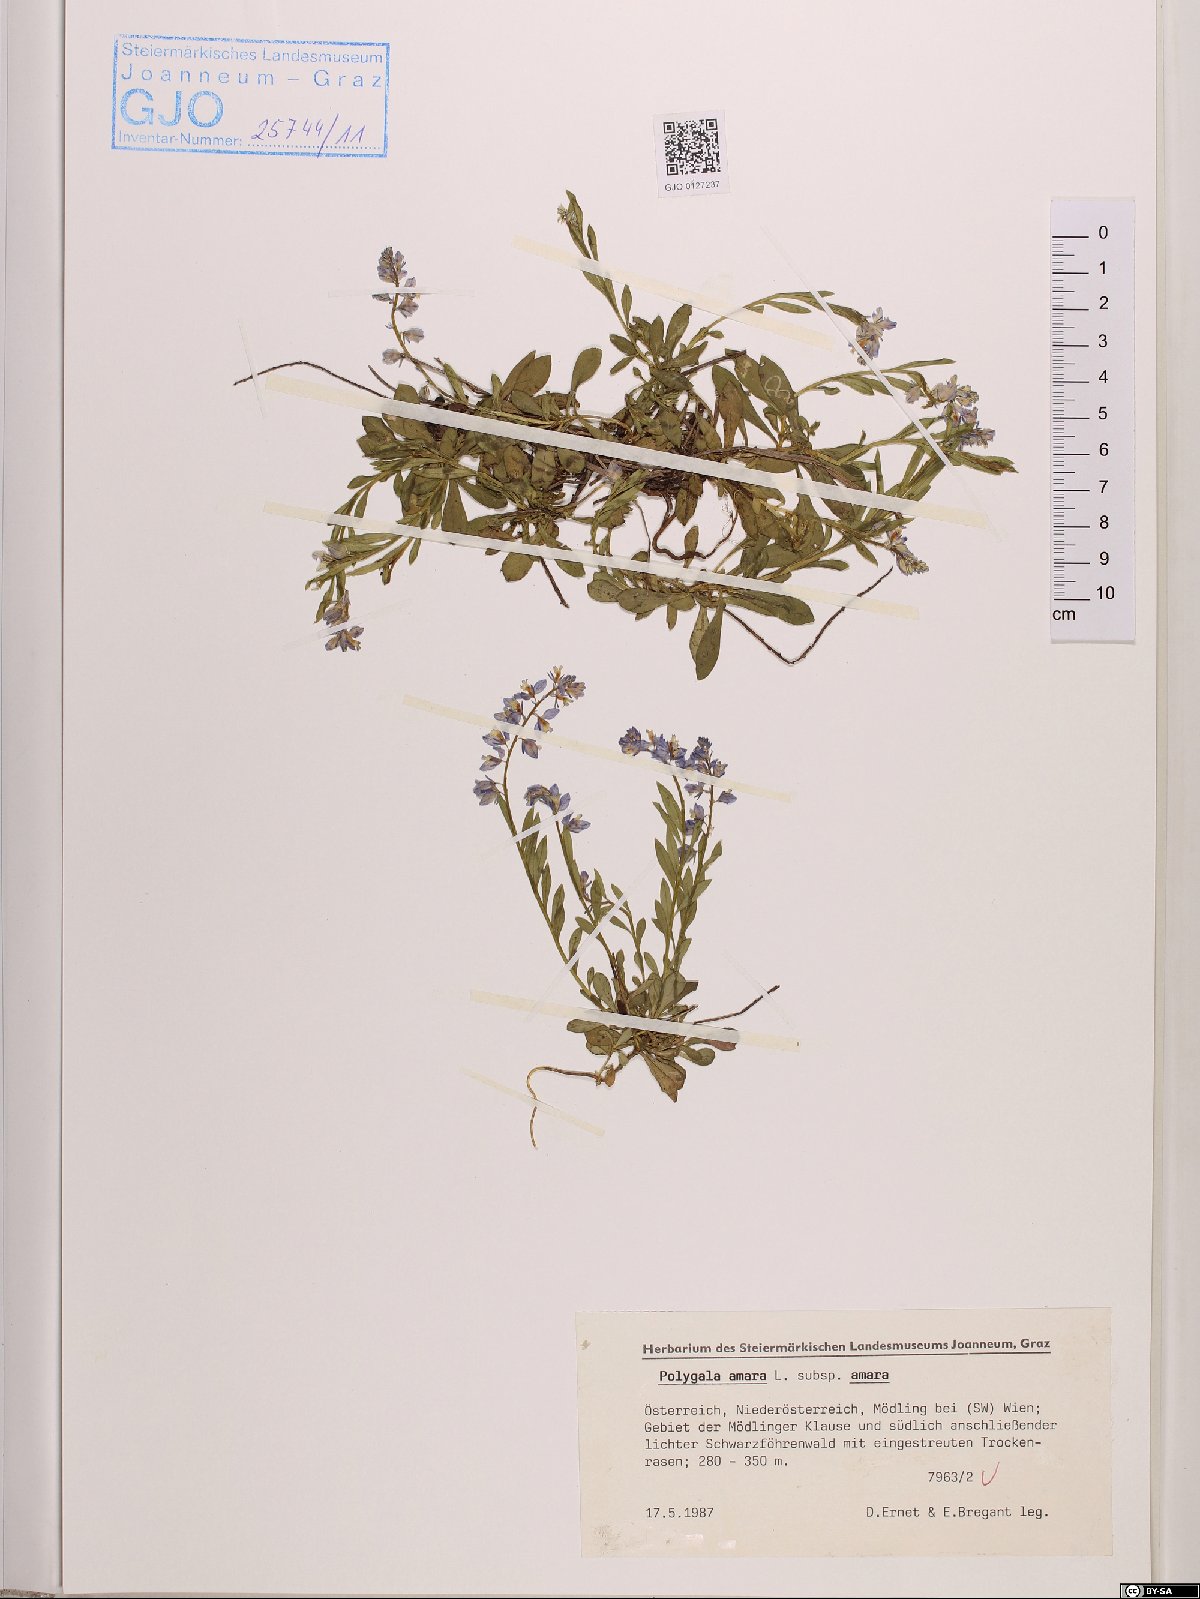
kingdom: Plantae
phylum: Tracheophyta
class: Magnoliopsida
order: Fabales
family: Polygalaceae
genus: Polygala
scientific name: Polygala amara
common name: Milkwort
